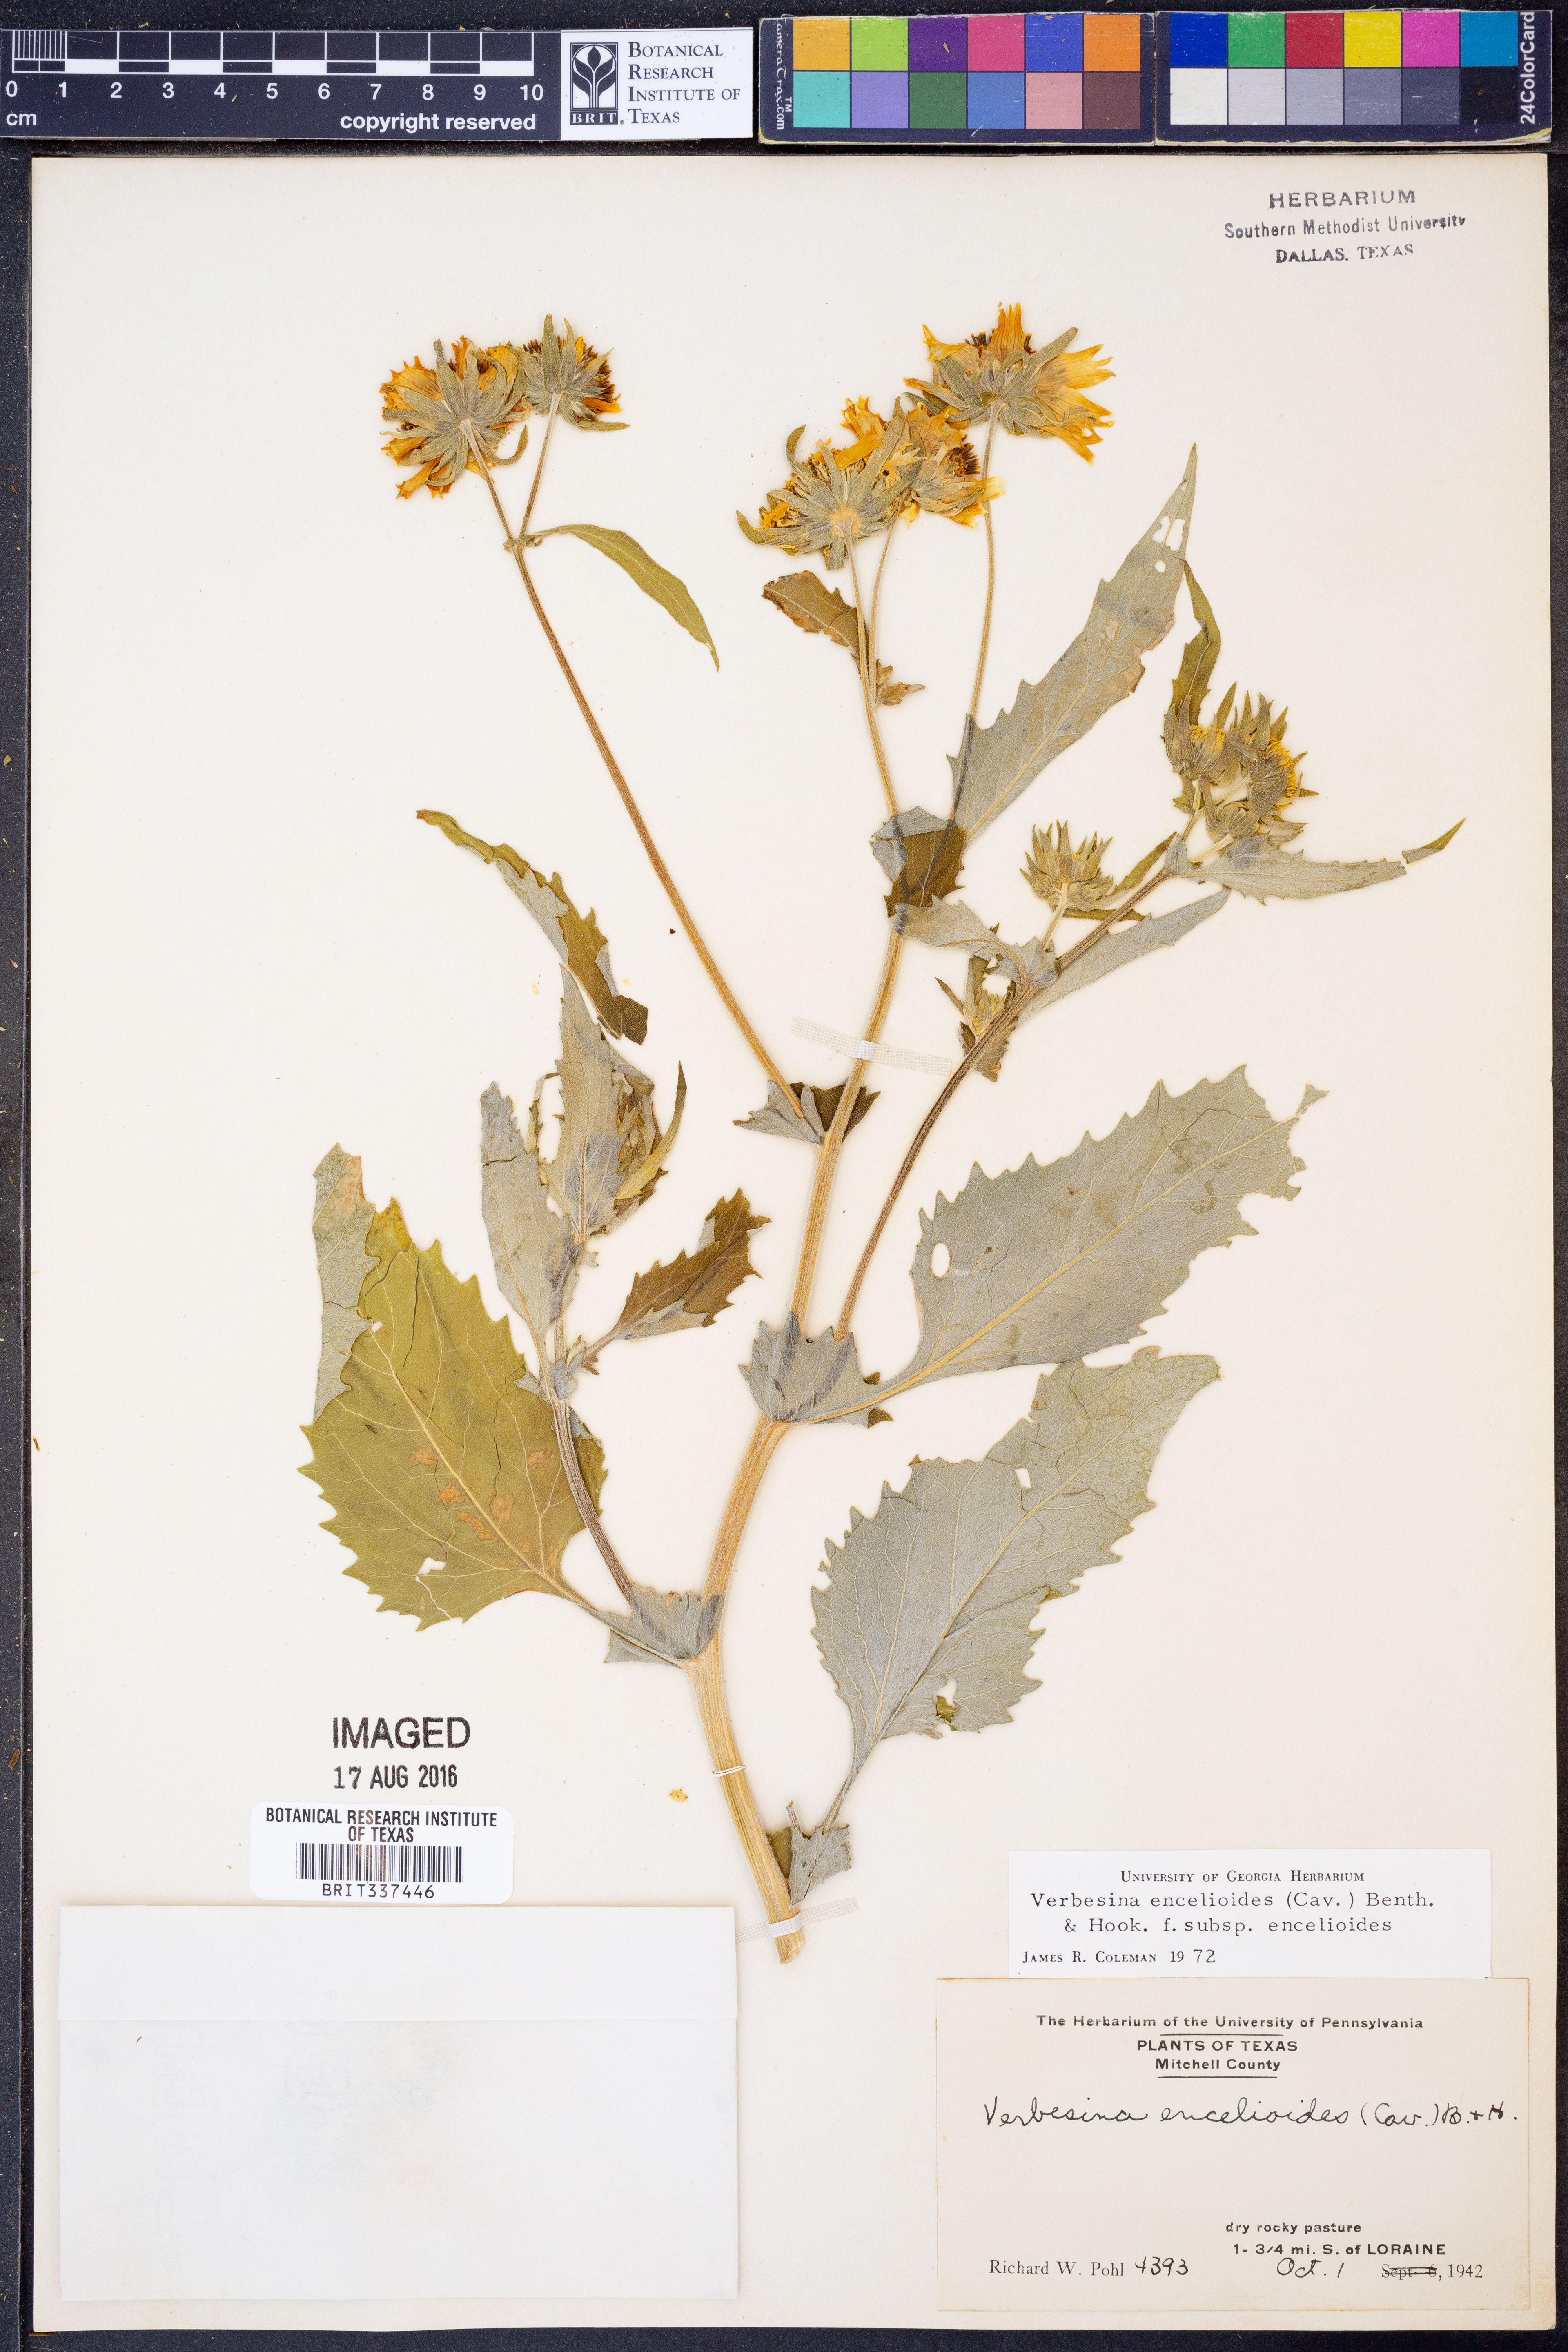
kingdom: Plantae
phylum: Tracheophyta
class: Magnoliopsida
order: Asterales
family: Asteraceae
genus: Verbesina
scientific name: Verbesina encelioides
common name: Golden crownbeard
